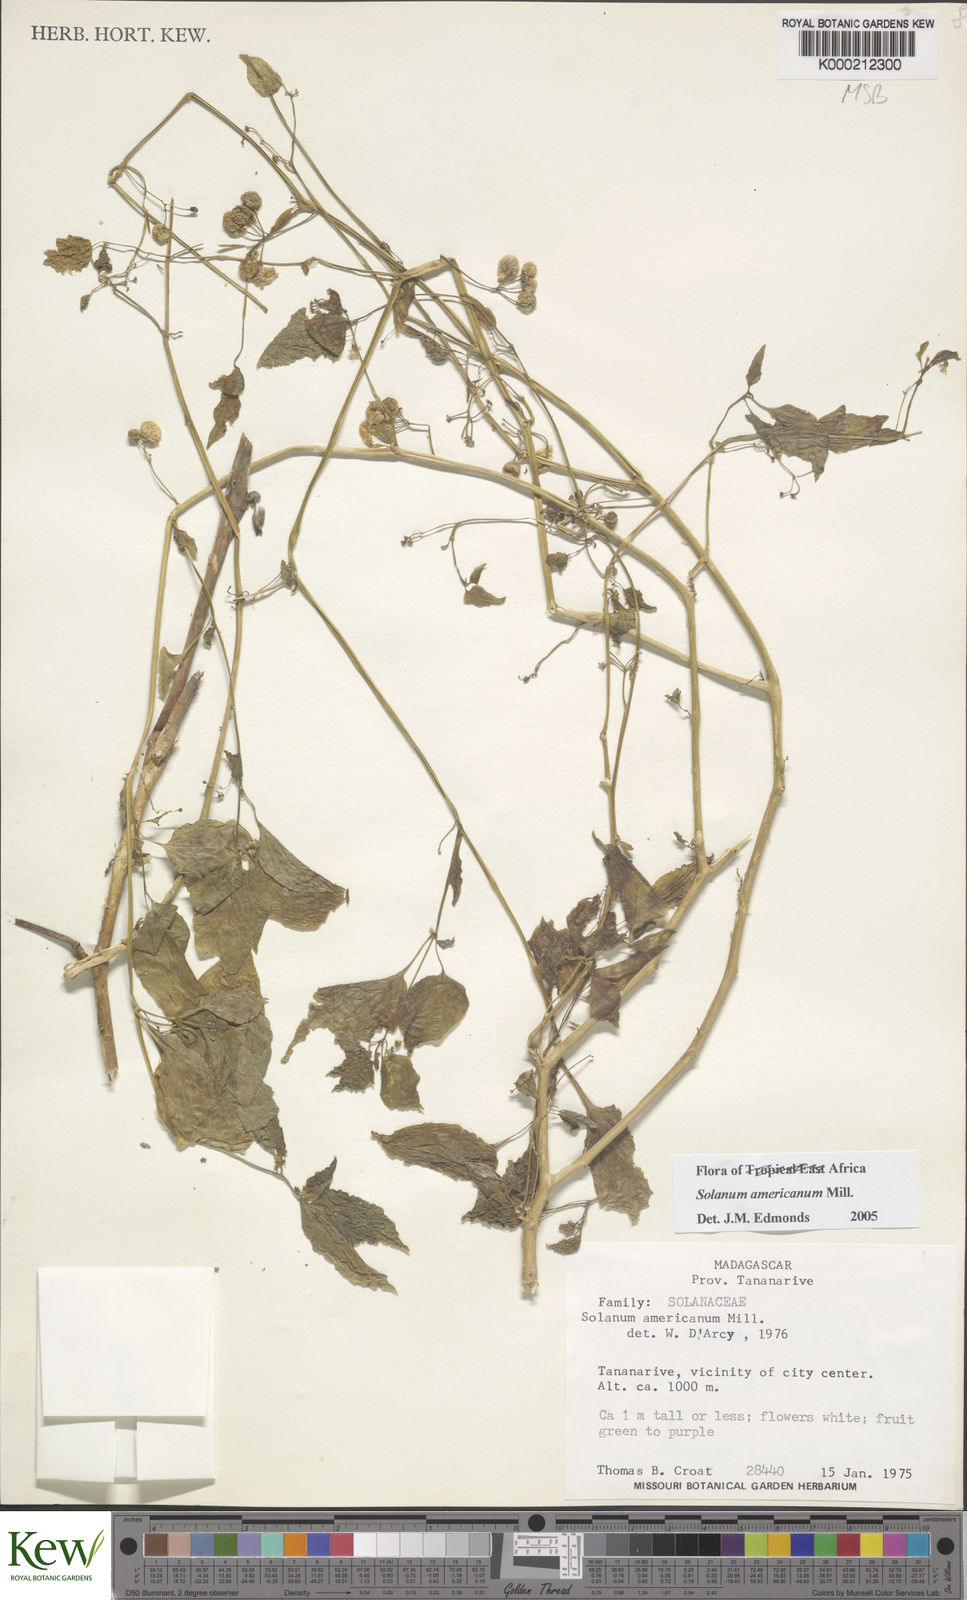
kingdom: Plantae
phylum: Tracheophyta
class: Magnoliopsida
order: Solanales
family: Solanaceae
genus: Solanum
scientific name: Solanum americanum
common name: American black nightshade
